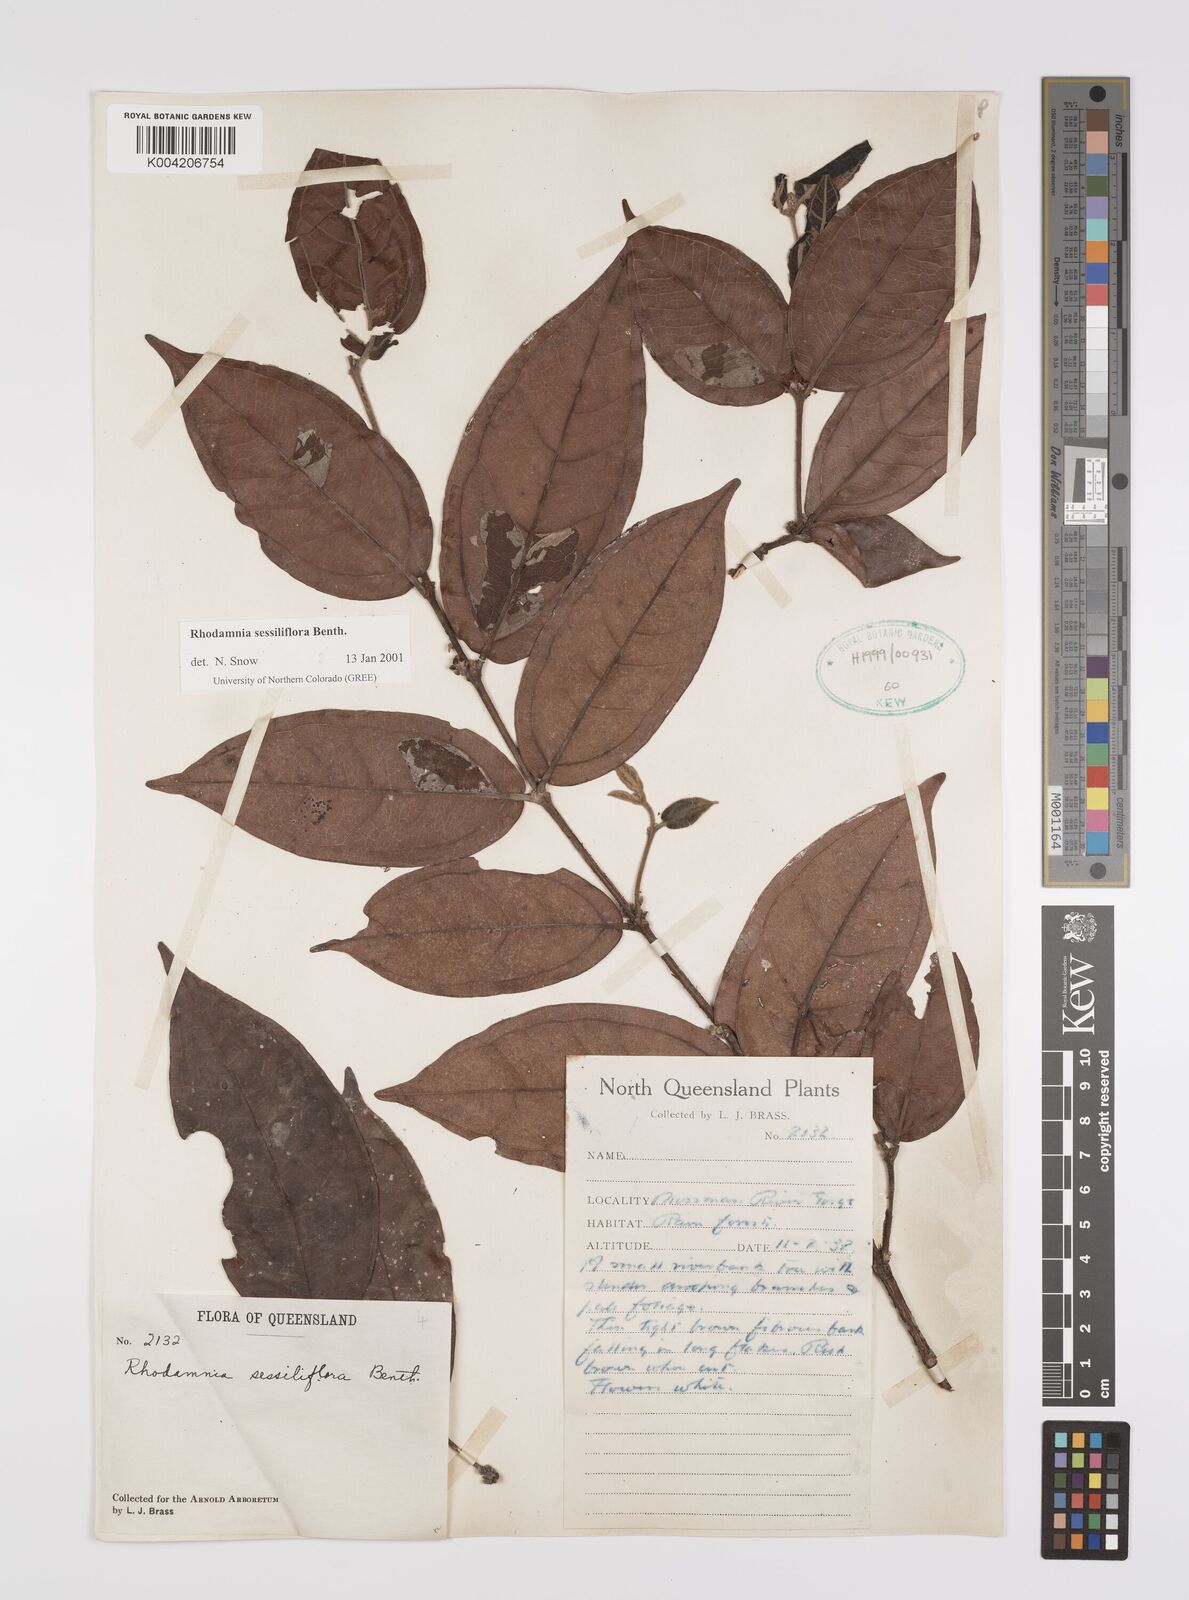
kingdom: Plantae
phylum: Tracheophyta
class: Magnoliopsida
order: Myrtales
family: Myrtaceae
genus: Rhodamnia
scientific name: Rhodamnia sessiliflora
